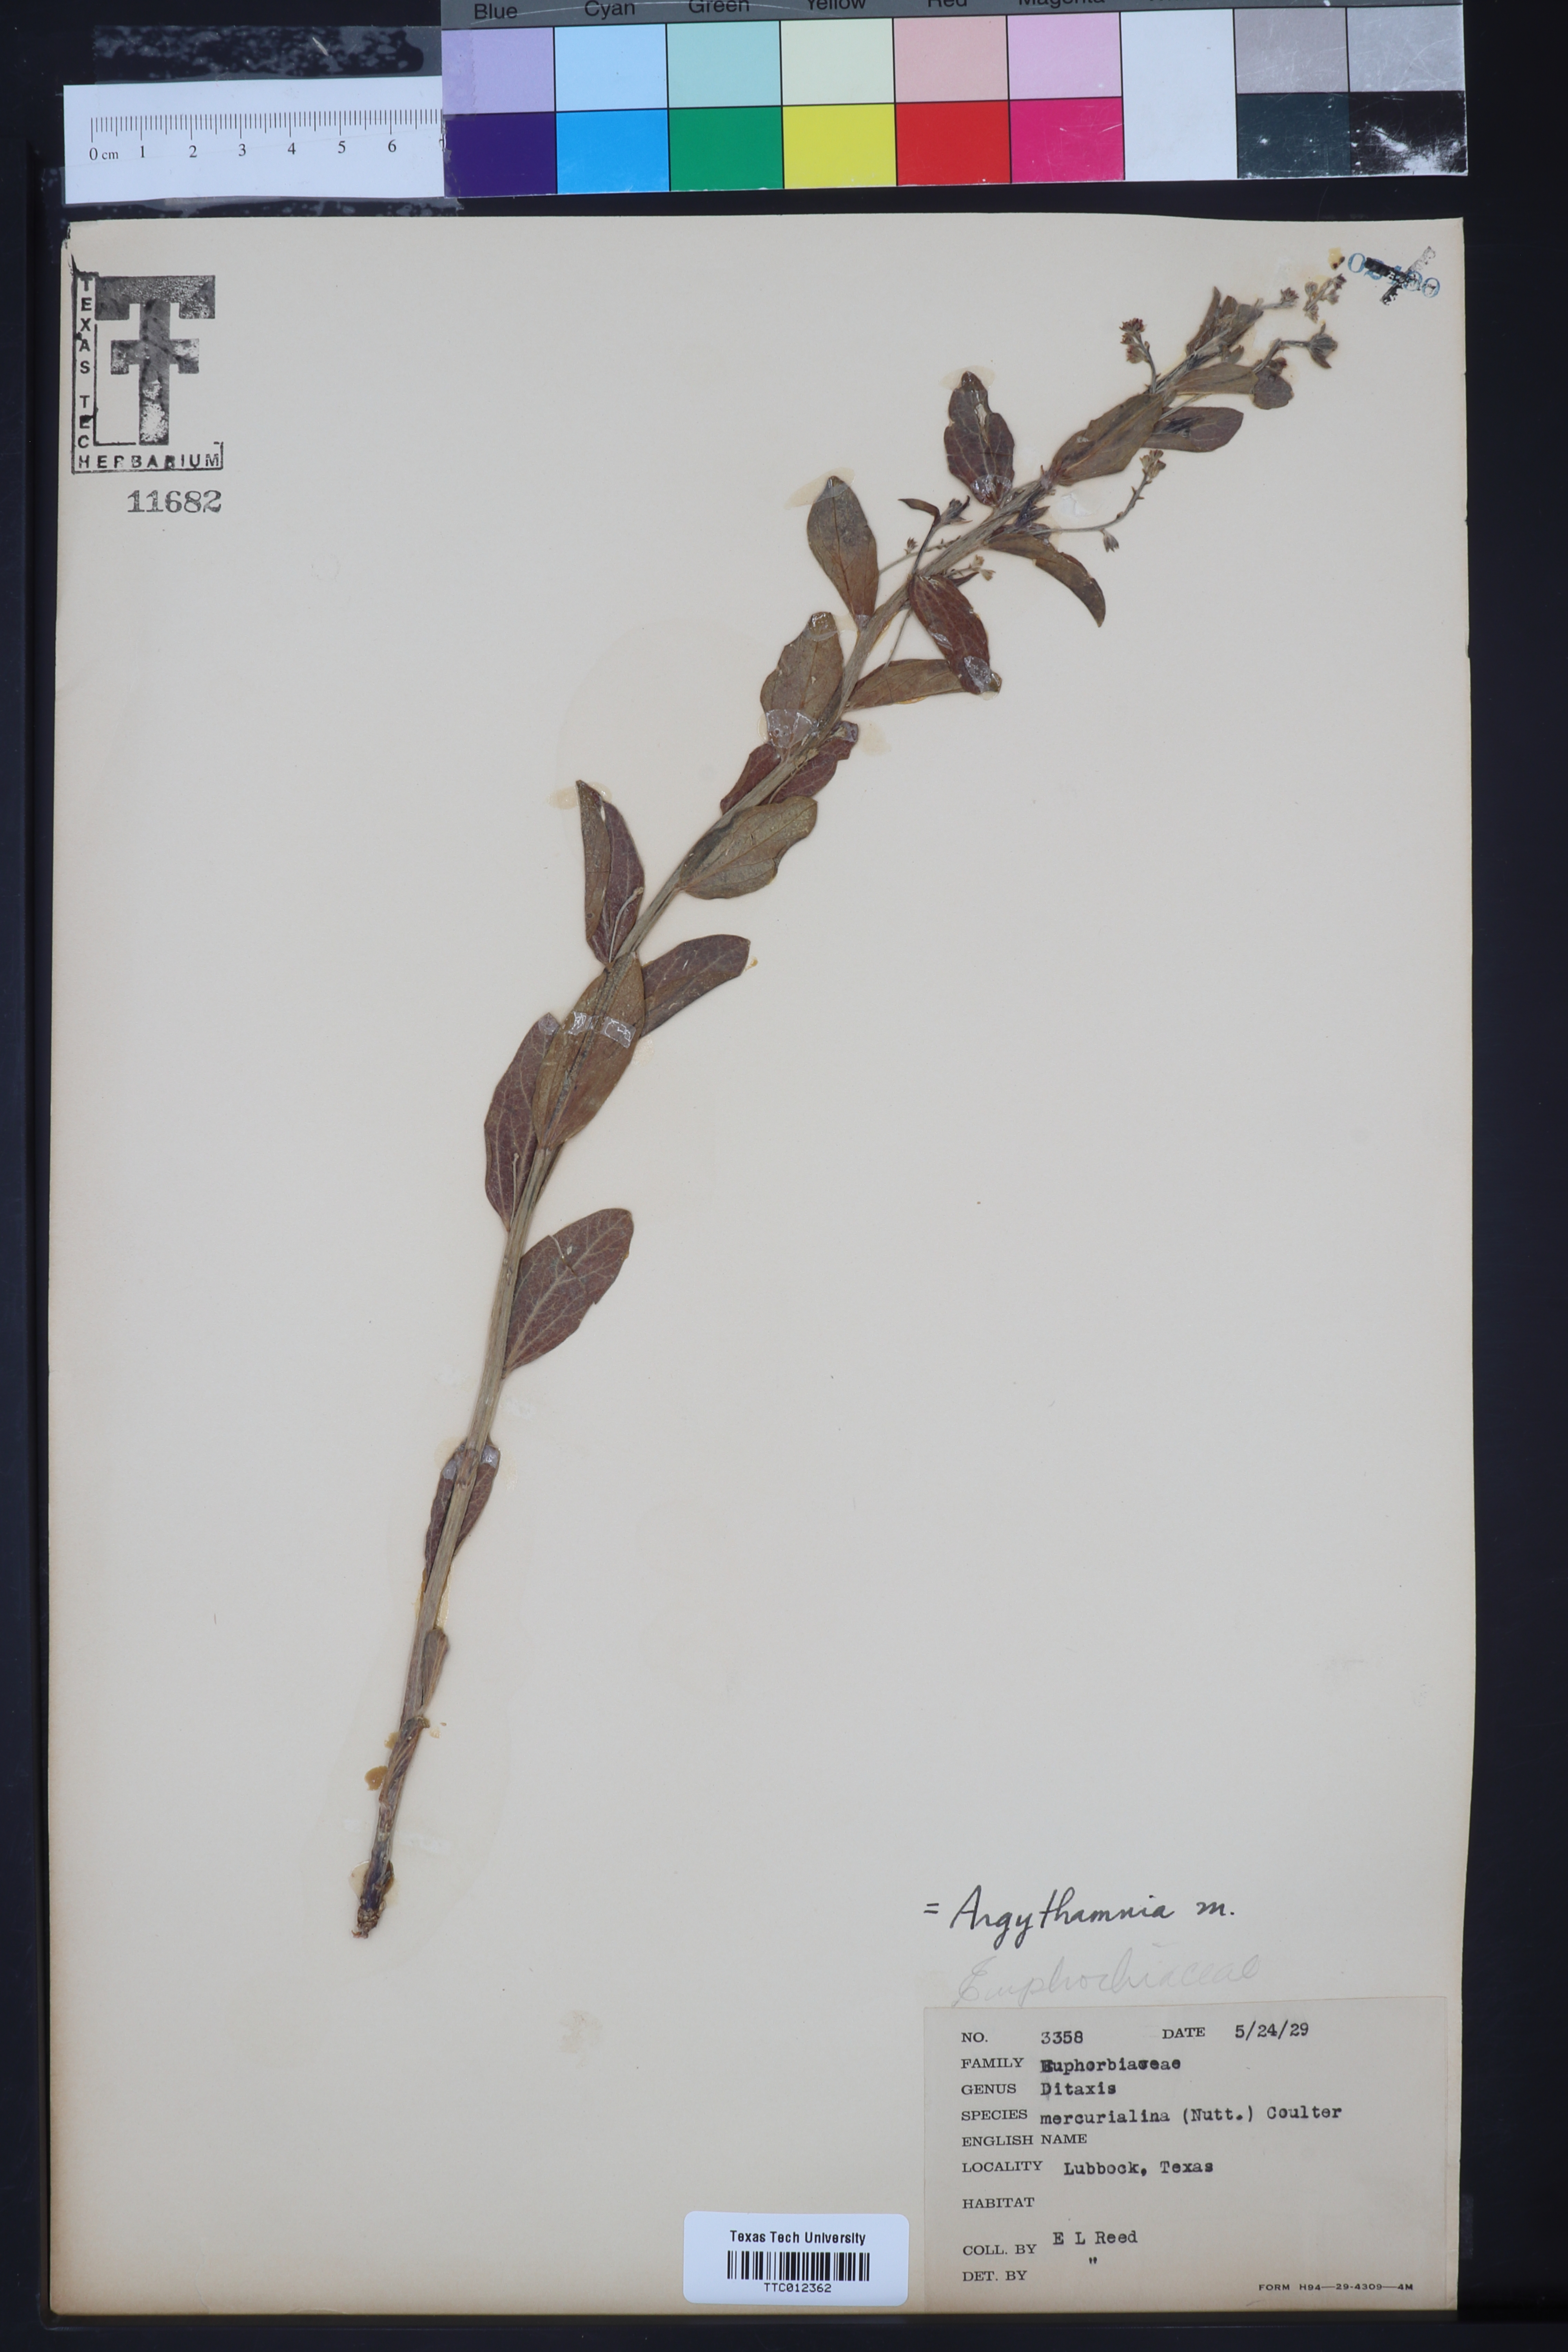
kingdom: Plantae
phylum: Tracheophyta
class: Magnoliopsida
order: Malpighiales
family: Euphorbiaceae
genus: Ditaxis
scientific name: Ditaxis mercurialina
